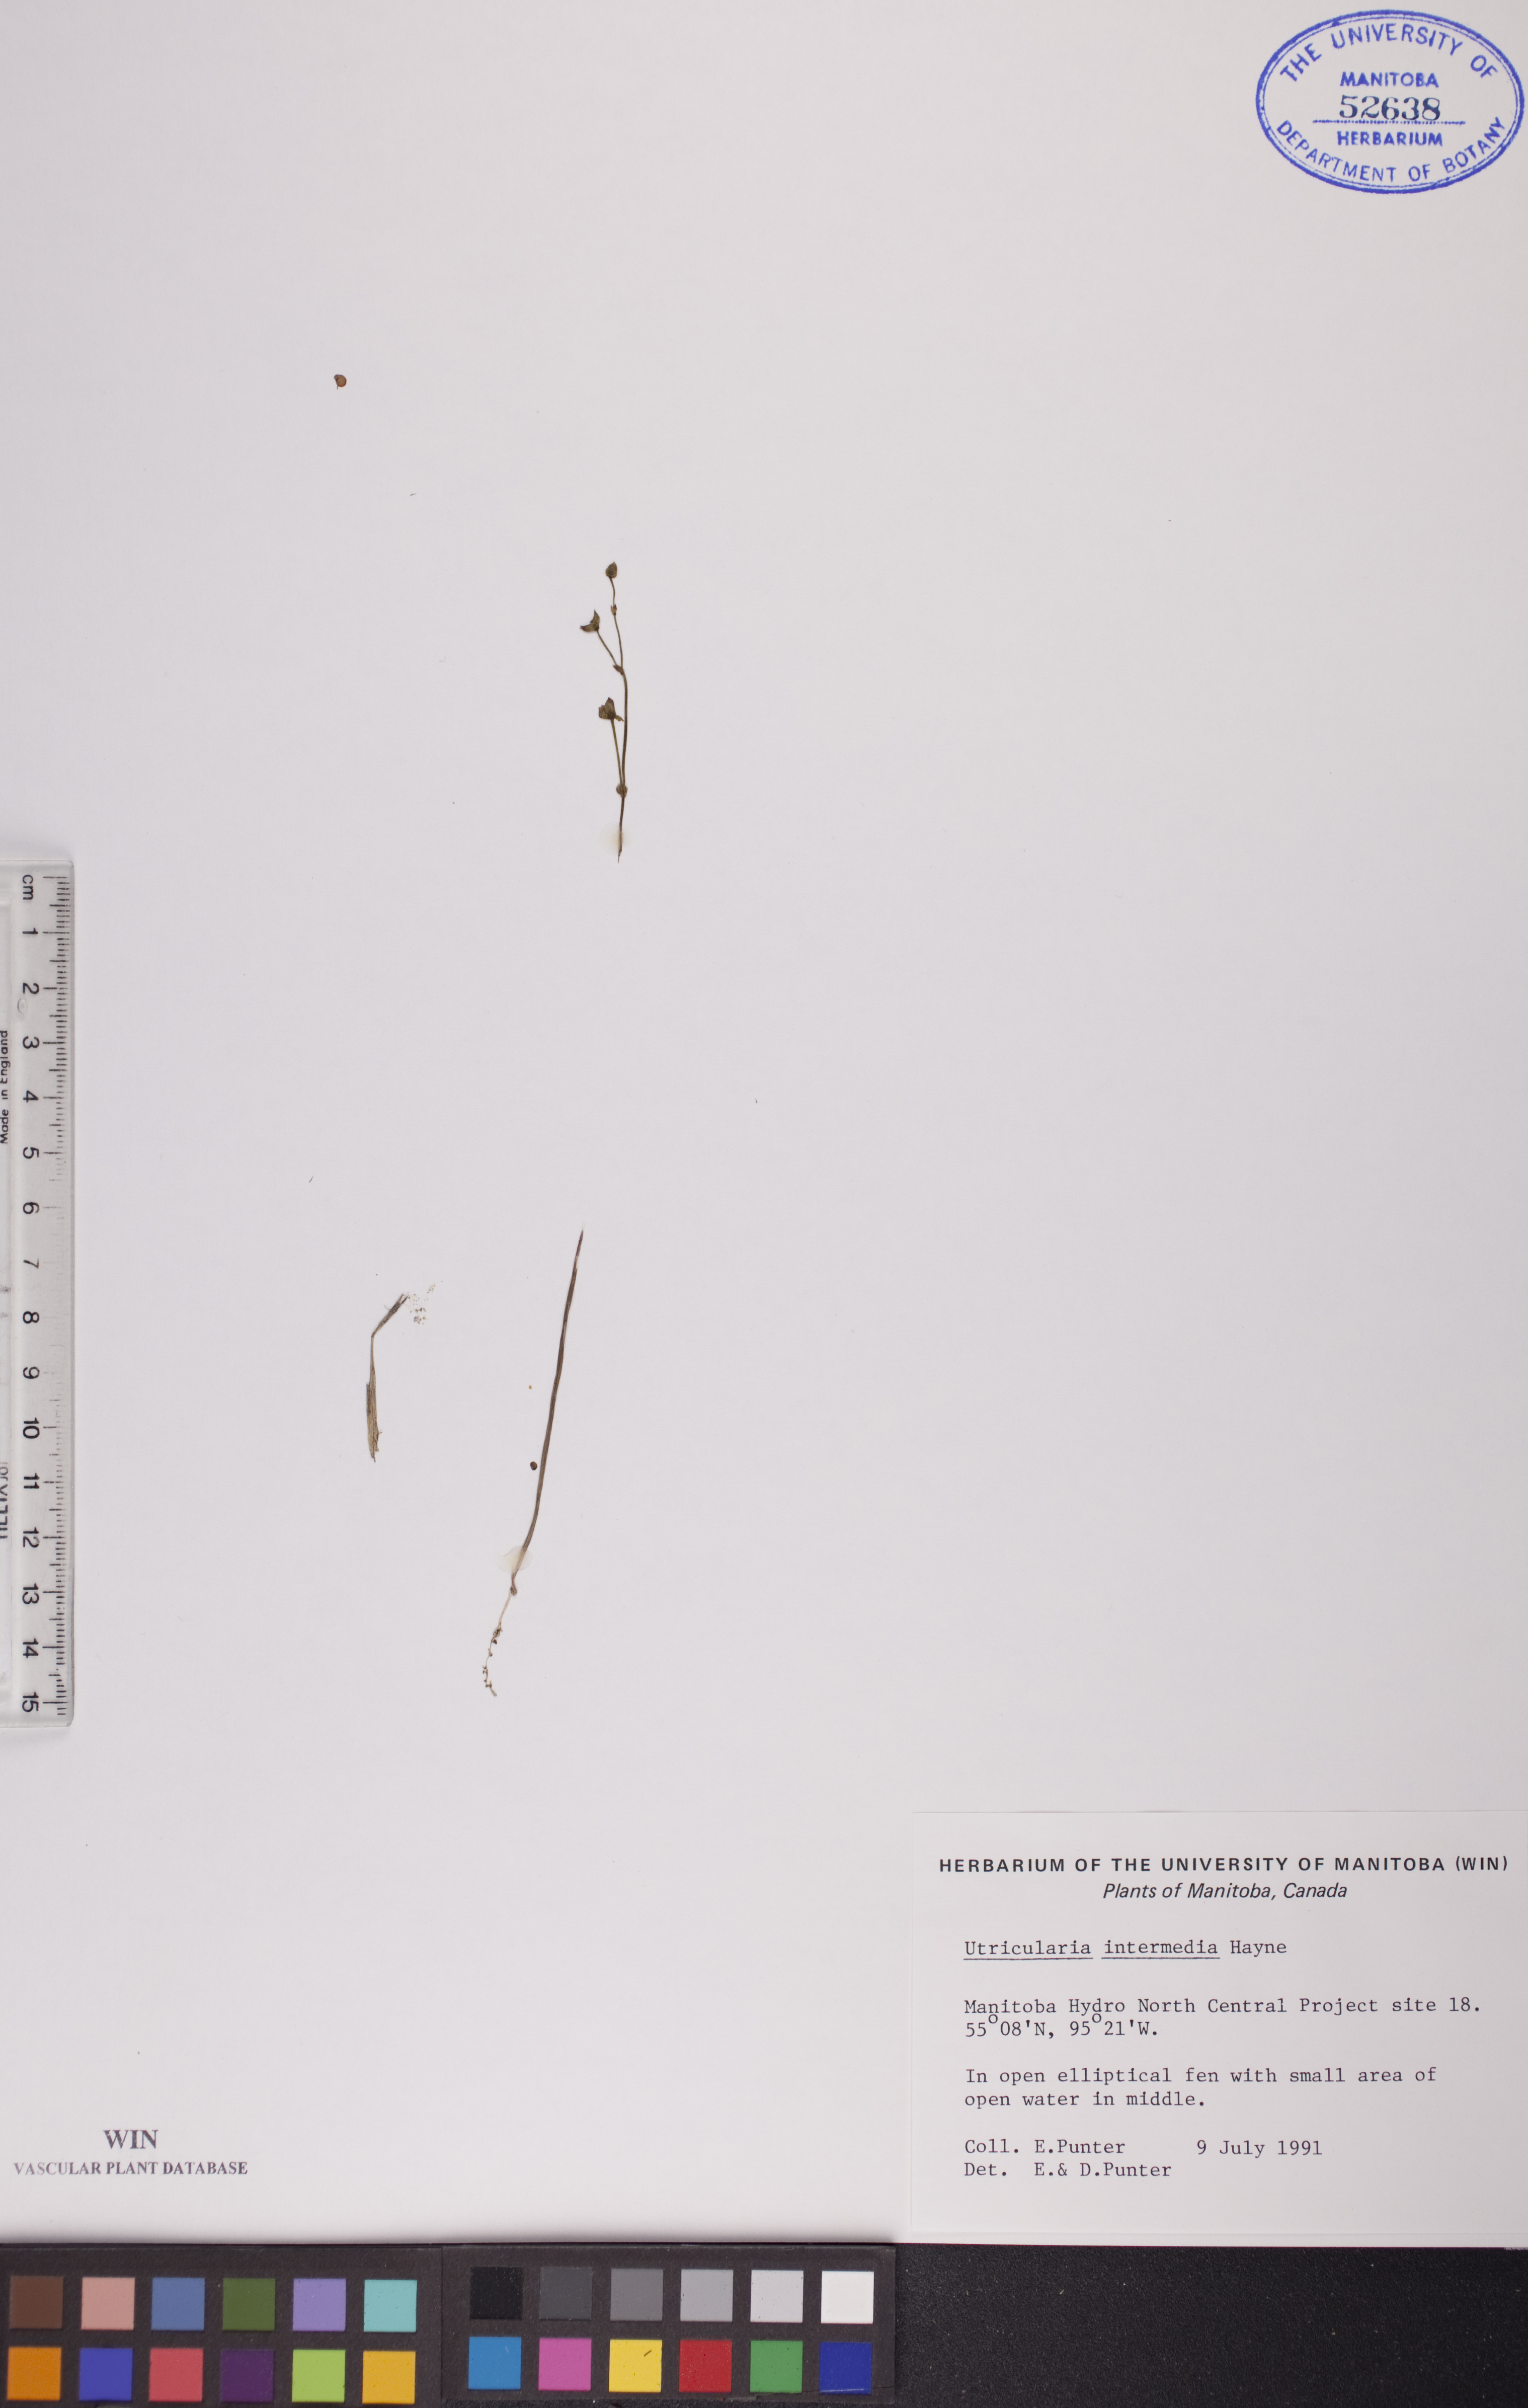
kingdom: Plantae
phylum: Tracheophyta
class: Magnoliopsida
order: Lamiales
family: Lentibulariaceae
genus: Utricularia
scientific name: Utricularia intermedia
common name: Intermediate bladderwort
